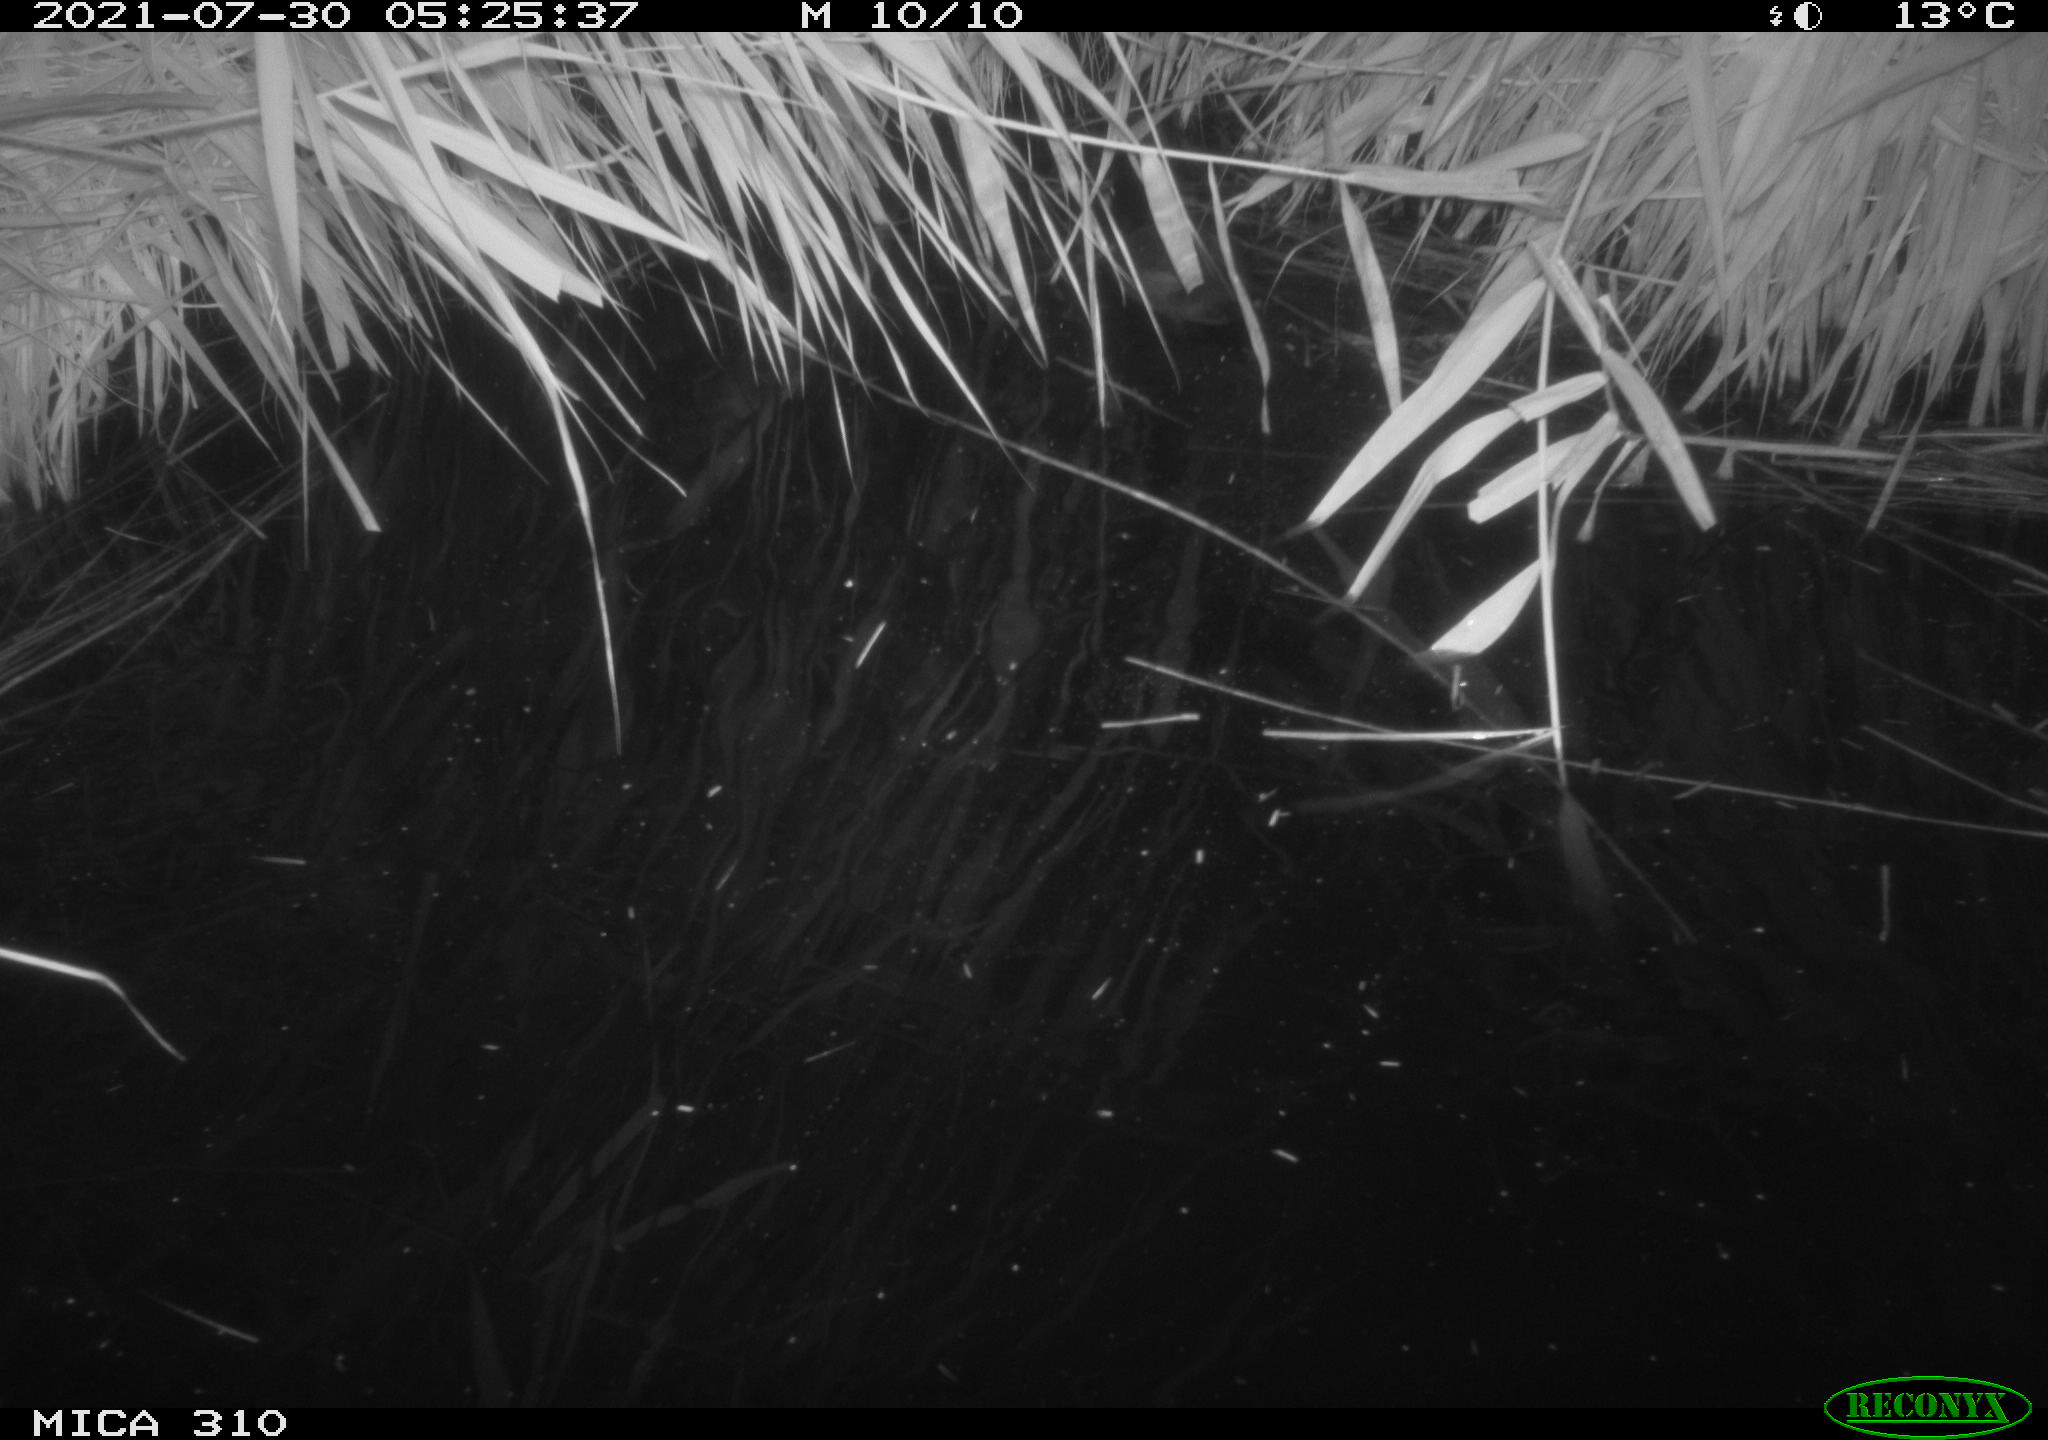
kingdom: Animalia
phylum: Chordata
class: Aves
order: Gruiformes
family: Rallidae
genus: Fulica
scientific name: Fulica atra
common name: Eurasian coot
